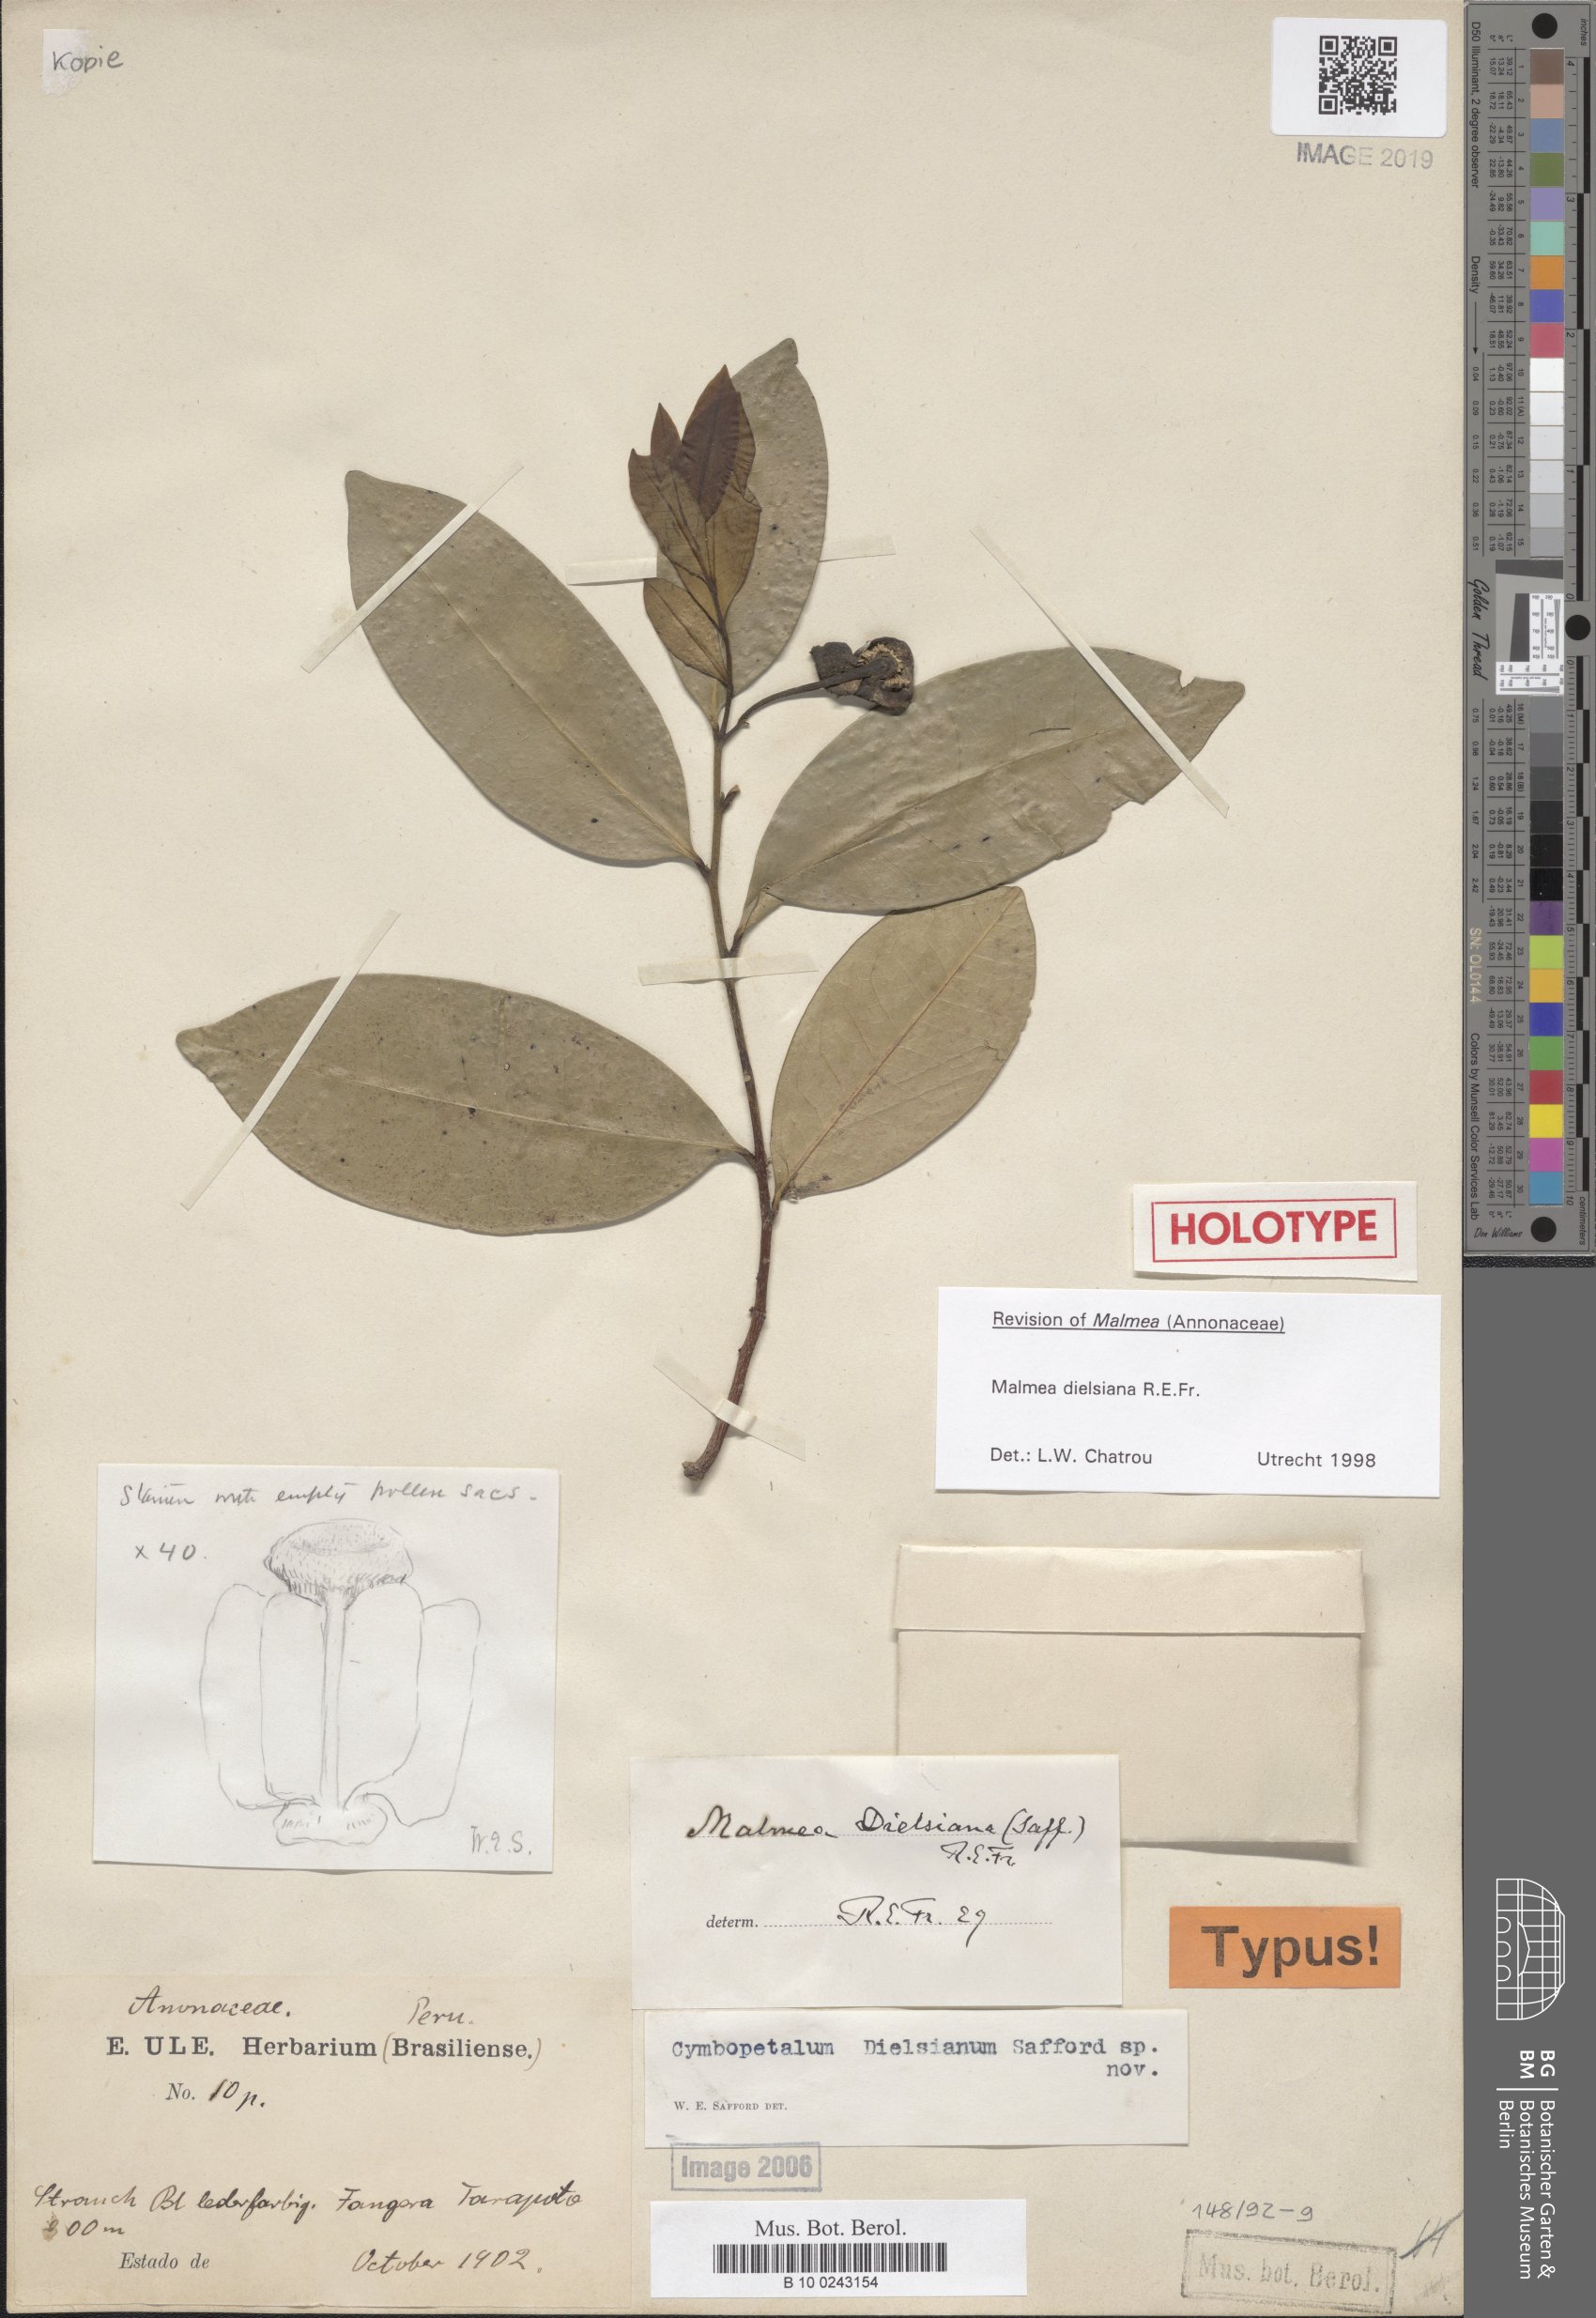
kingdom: Plantae
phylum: Tracheophyta
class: Magnoliopsida
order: Magnoliales
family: Annonaceae
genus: Malmea
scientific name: Malmea dielsiana
